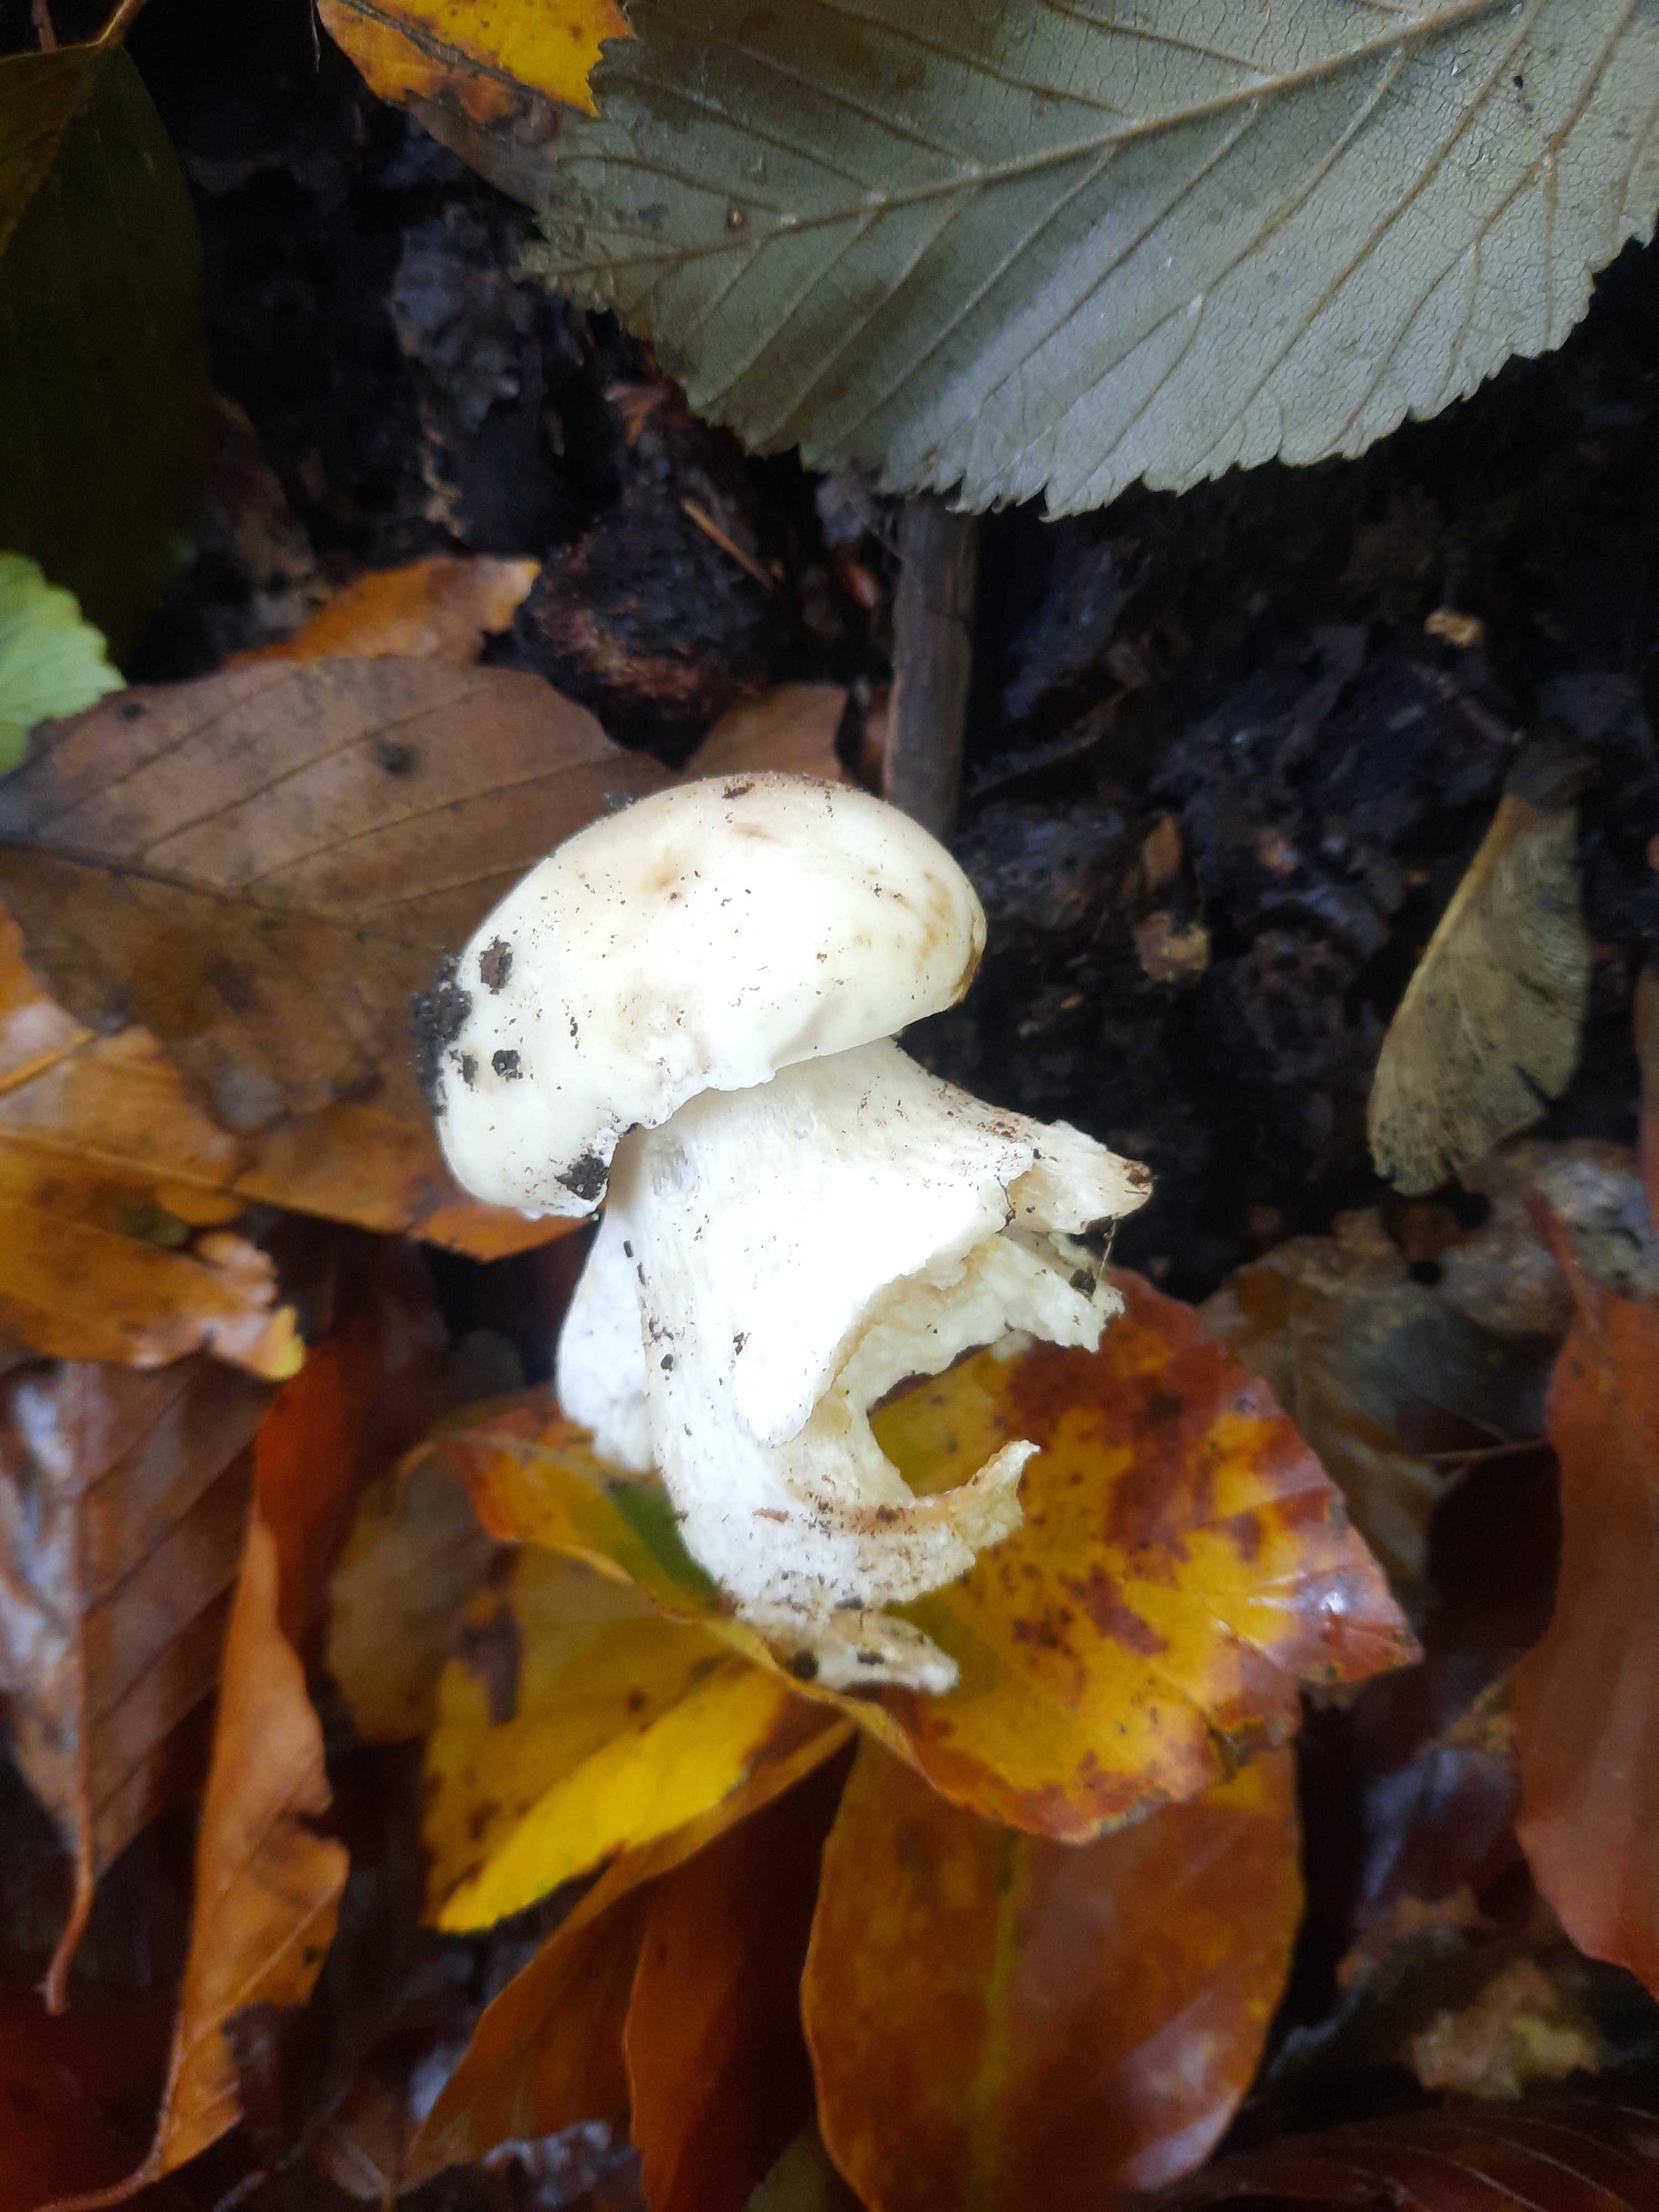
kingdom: Fungi
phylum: Basidiomycota
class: Agaricomycetes
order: Boletales
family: Boletaceae
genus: Boletus
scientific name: Boletus edulis
